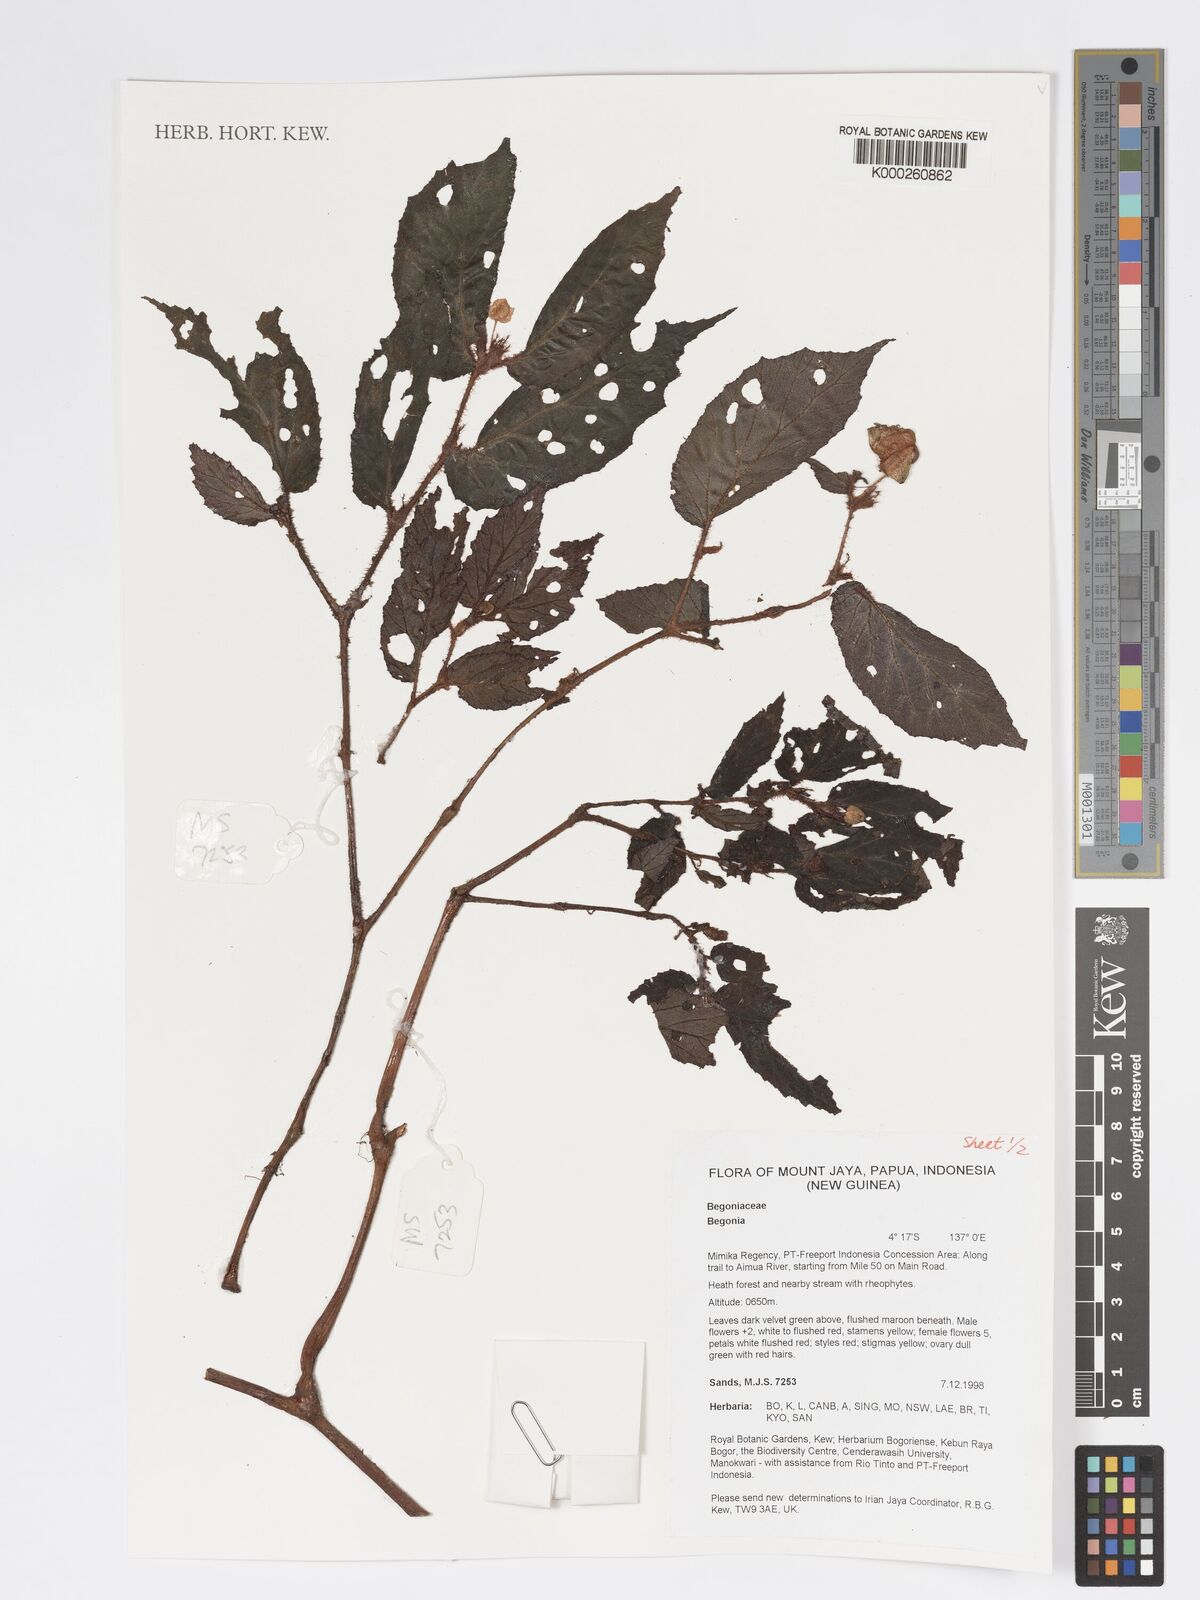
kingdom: Plantae
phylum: Tracheophyta
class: Magnoliopsida
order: Cucurbitales
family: Begoniaceae
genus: Begonia
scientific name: Begonia
